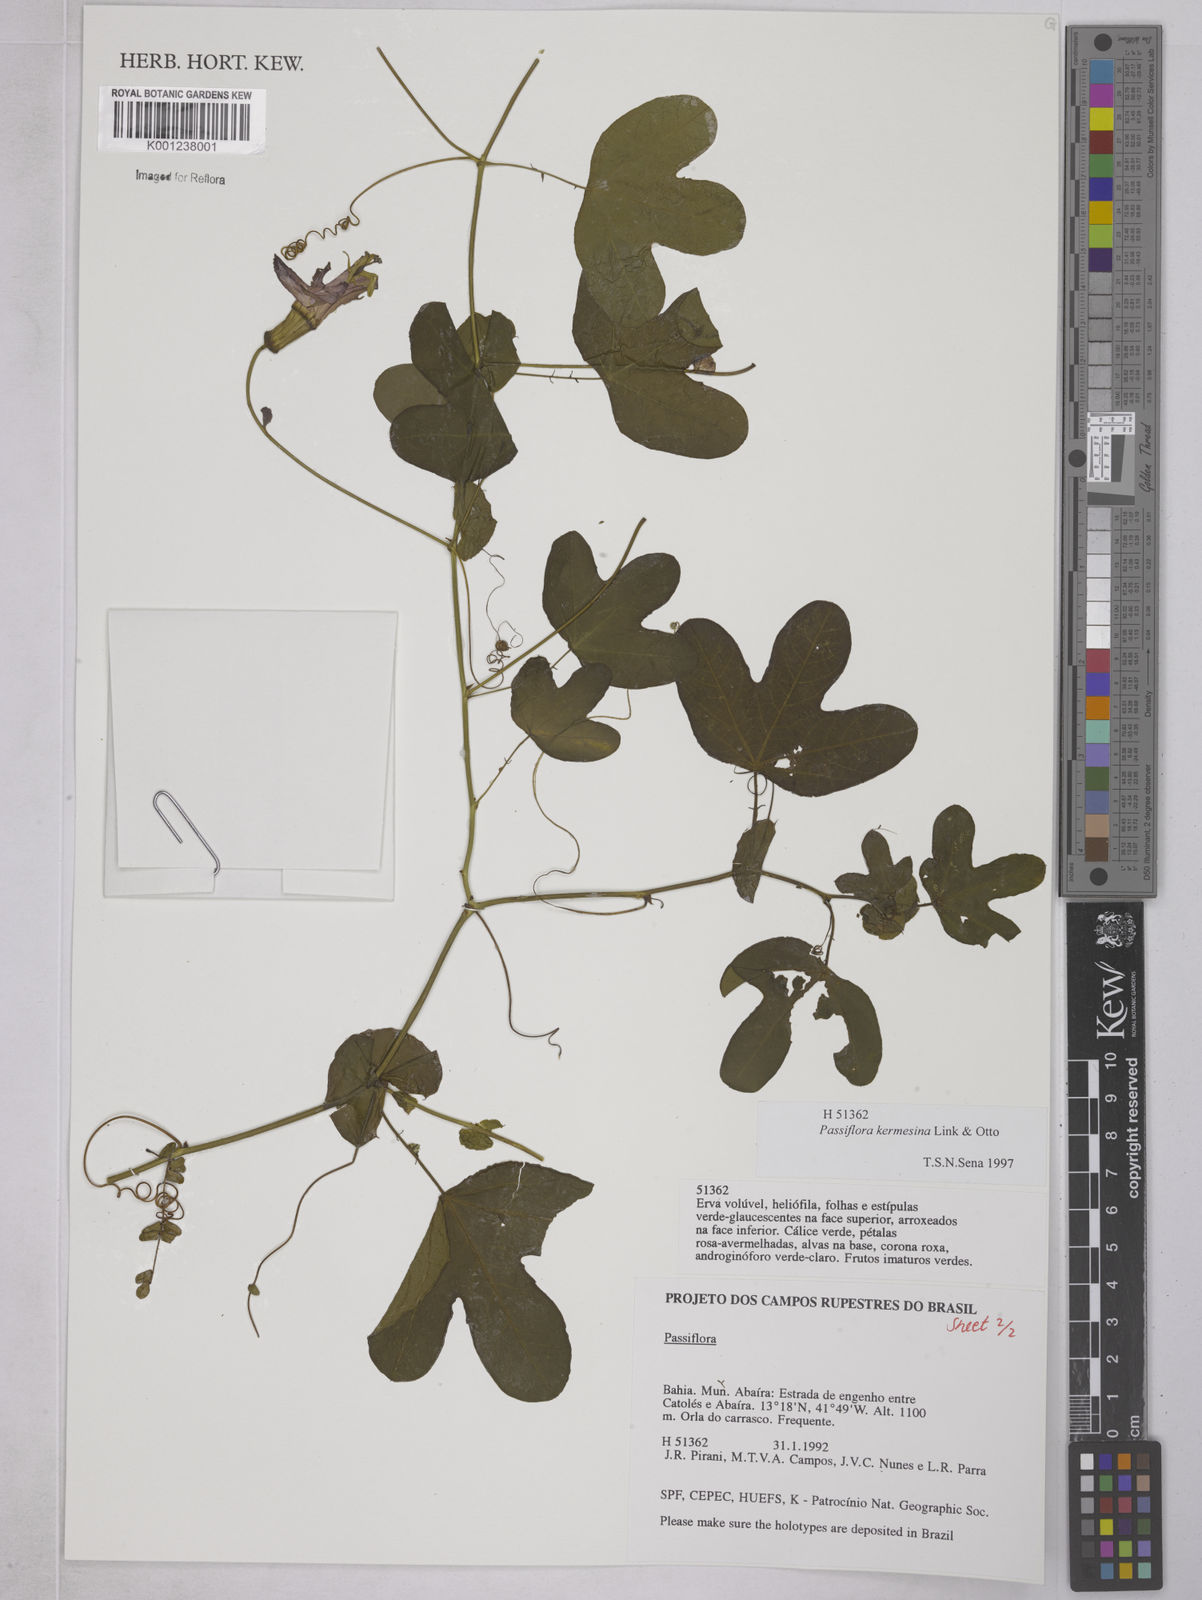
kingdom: Plantae
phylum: Tracheophyta
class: Magnoliopsida
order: Malpighiales
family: Passifloraceae
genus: Passiflora
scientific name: Passiflora kermesina
